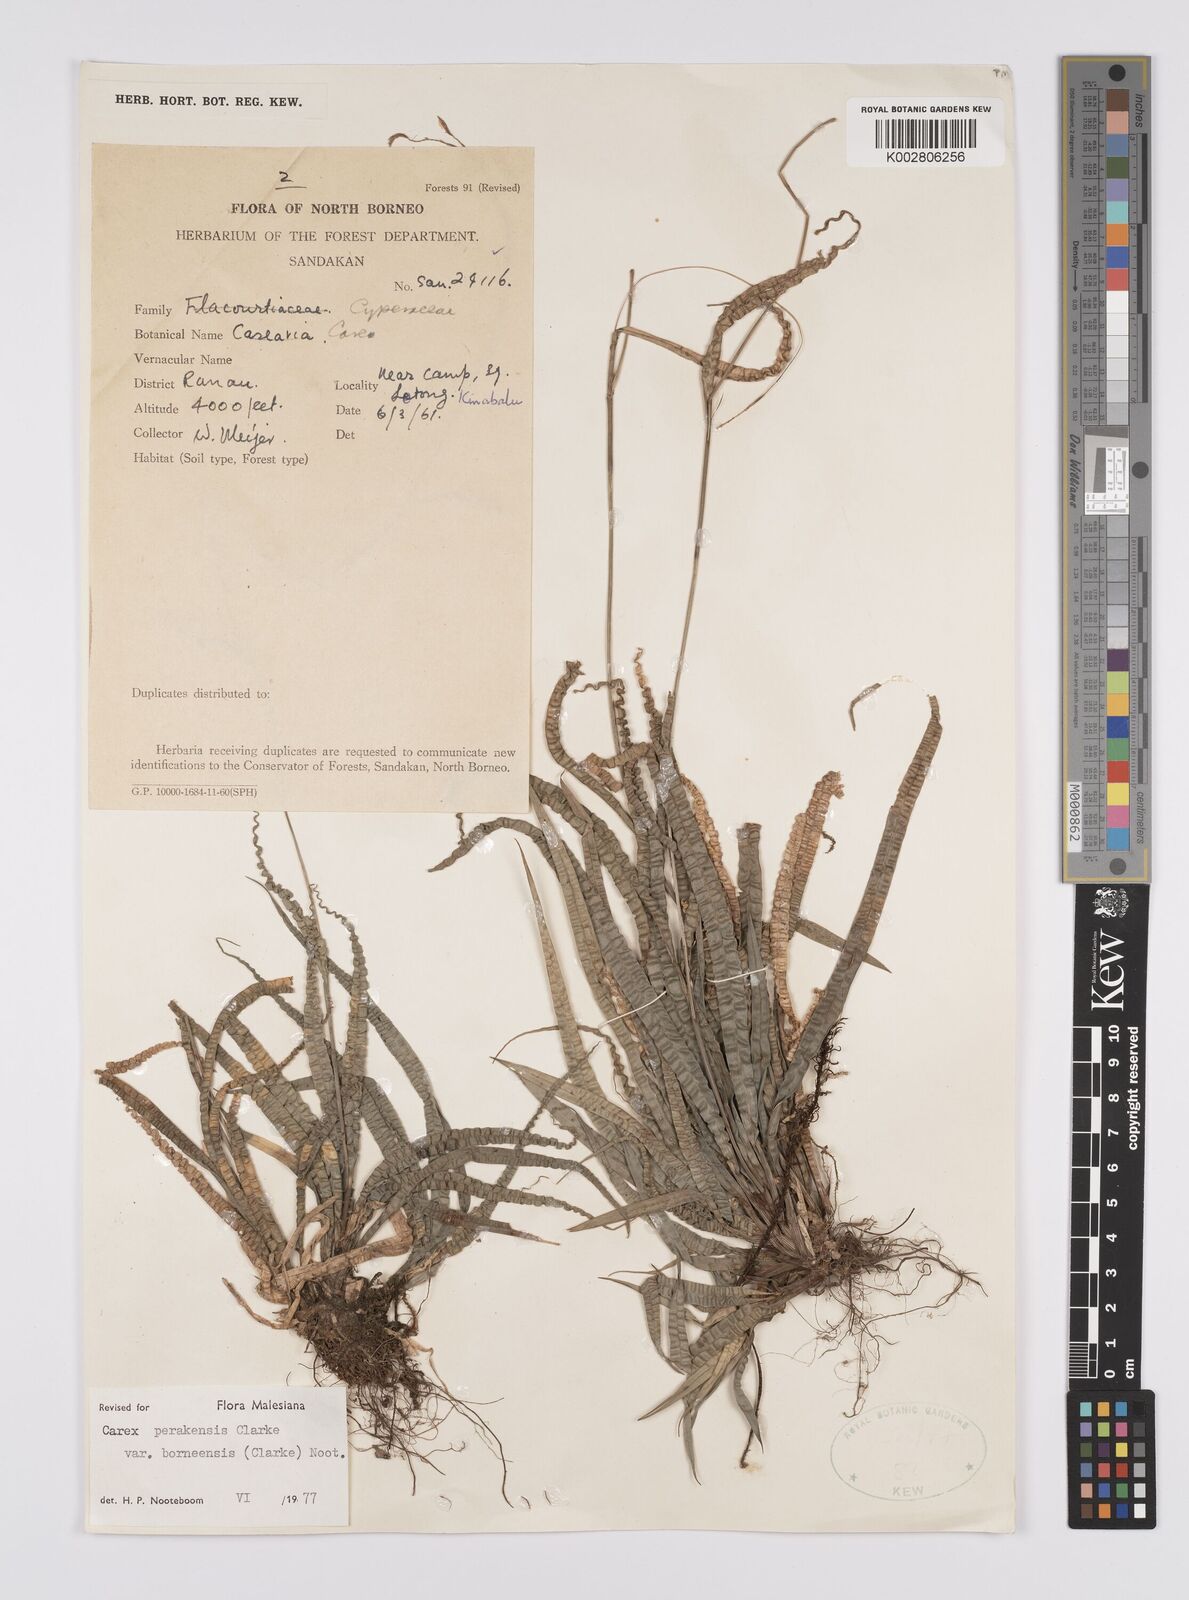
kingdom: Plantae
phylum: Tracheophyta
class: Liliopsida
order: Poales
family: Cyperaceae
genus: Carex
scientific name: Carex perakensis
